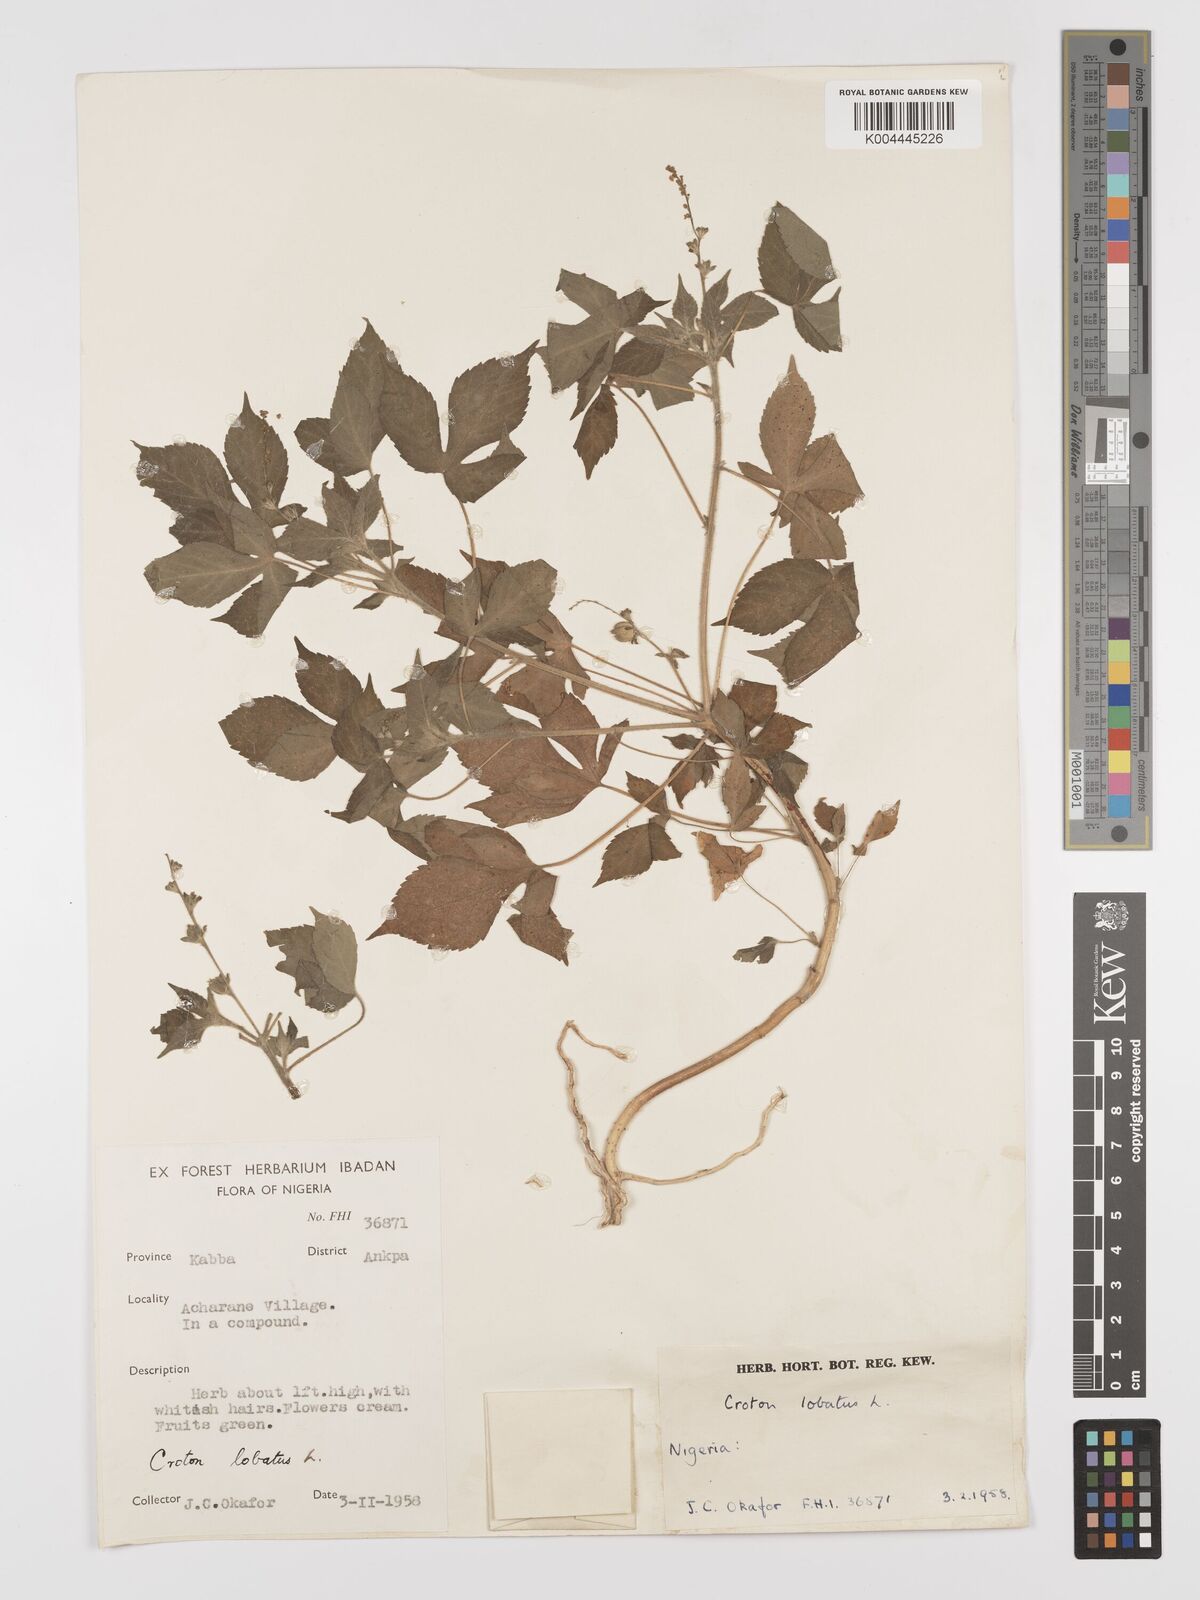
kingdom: Plantae
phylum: Tracheophyta
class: Magnoliopsida
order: Malpighiales
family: Euphorbiaceae
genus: Astraea
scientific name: Astraea lobata
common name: Lobed croton
